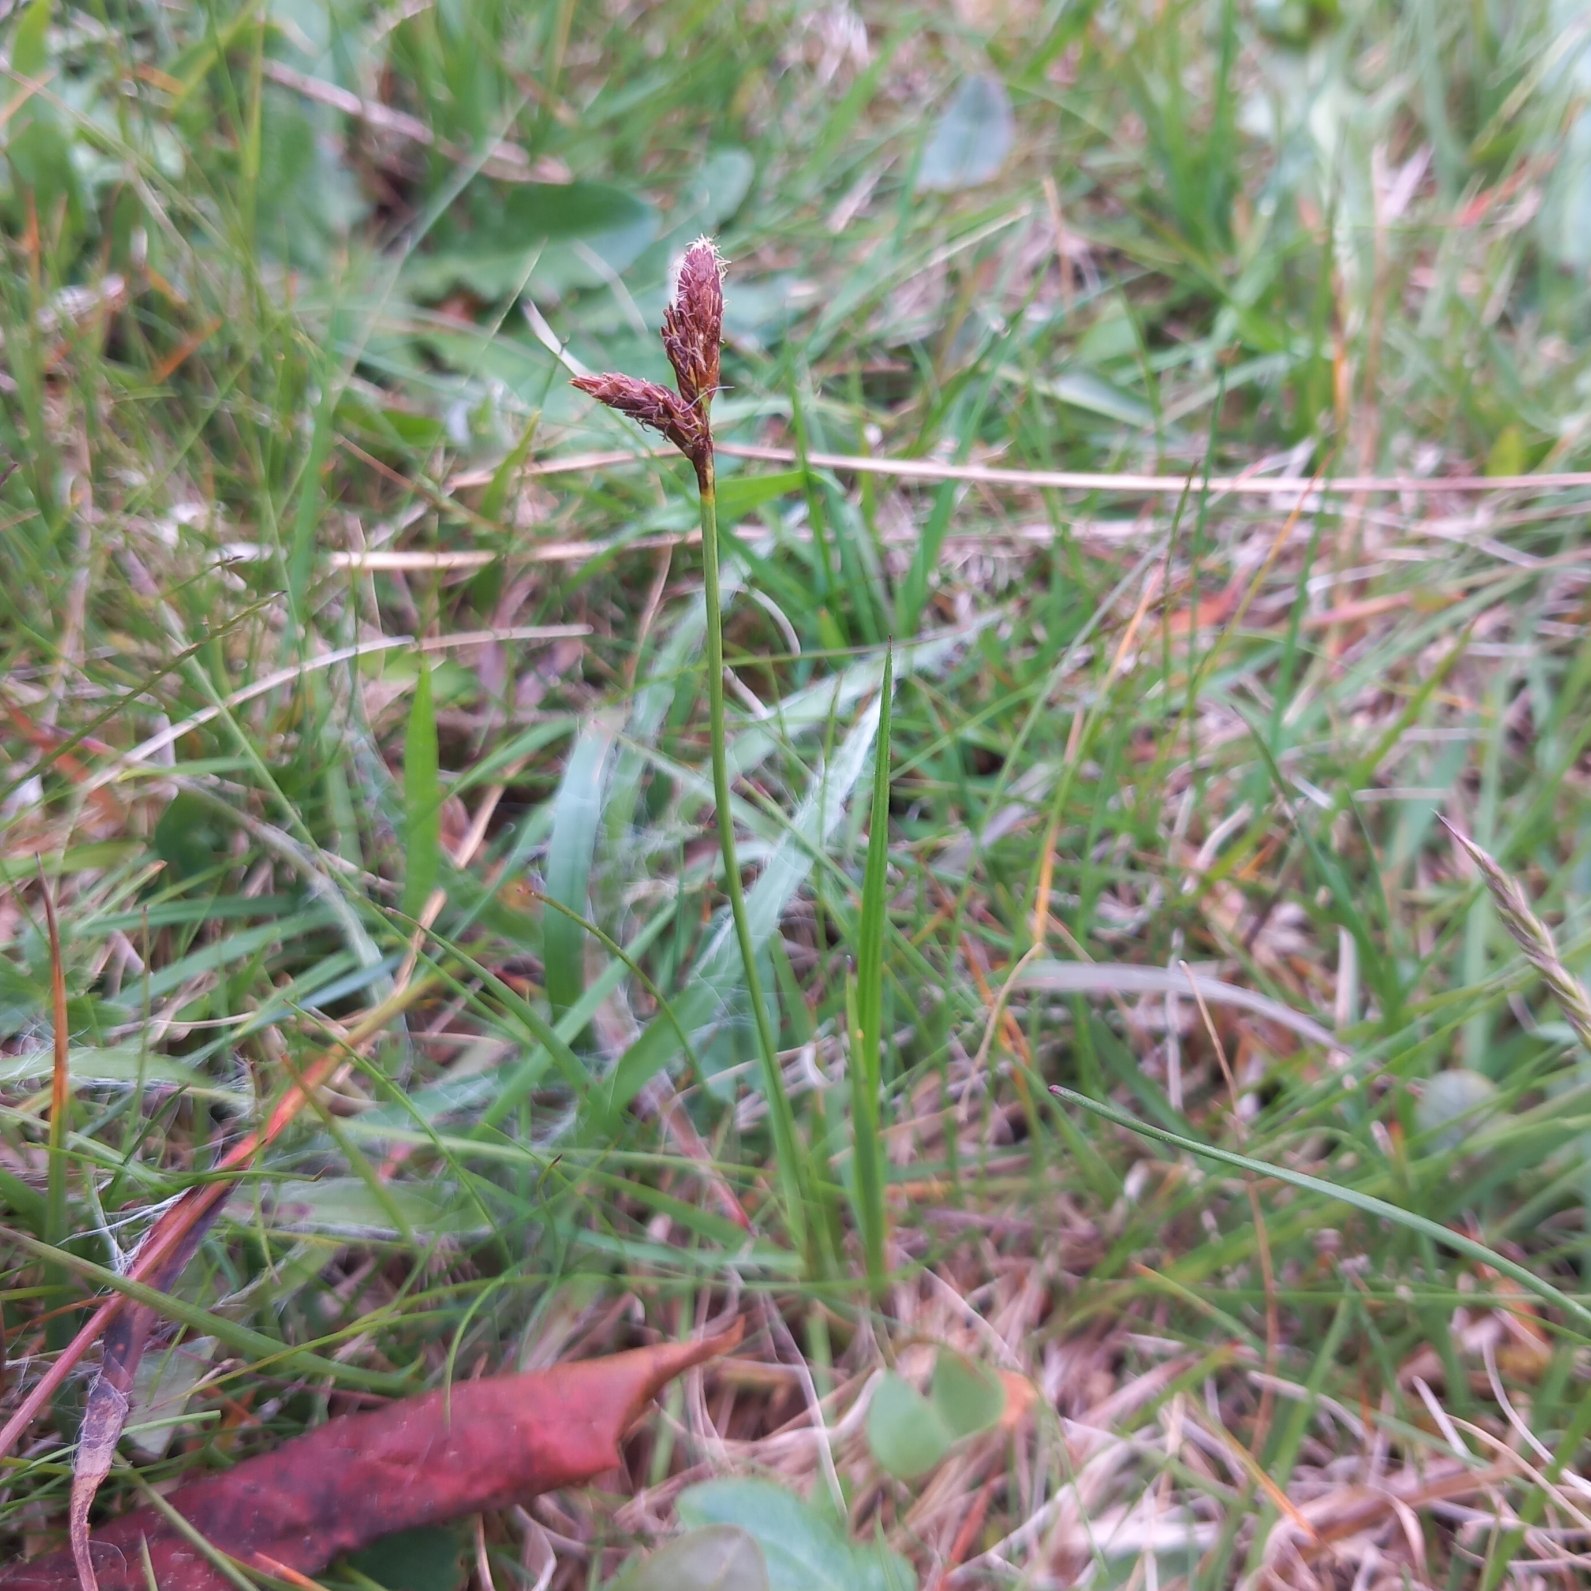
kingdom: Plantae
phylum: Tracheophyta
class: Liliopsida
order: Poales
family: Cyperaceae
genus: Carex
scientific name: Carex caryophyllea
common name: Vår-star
